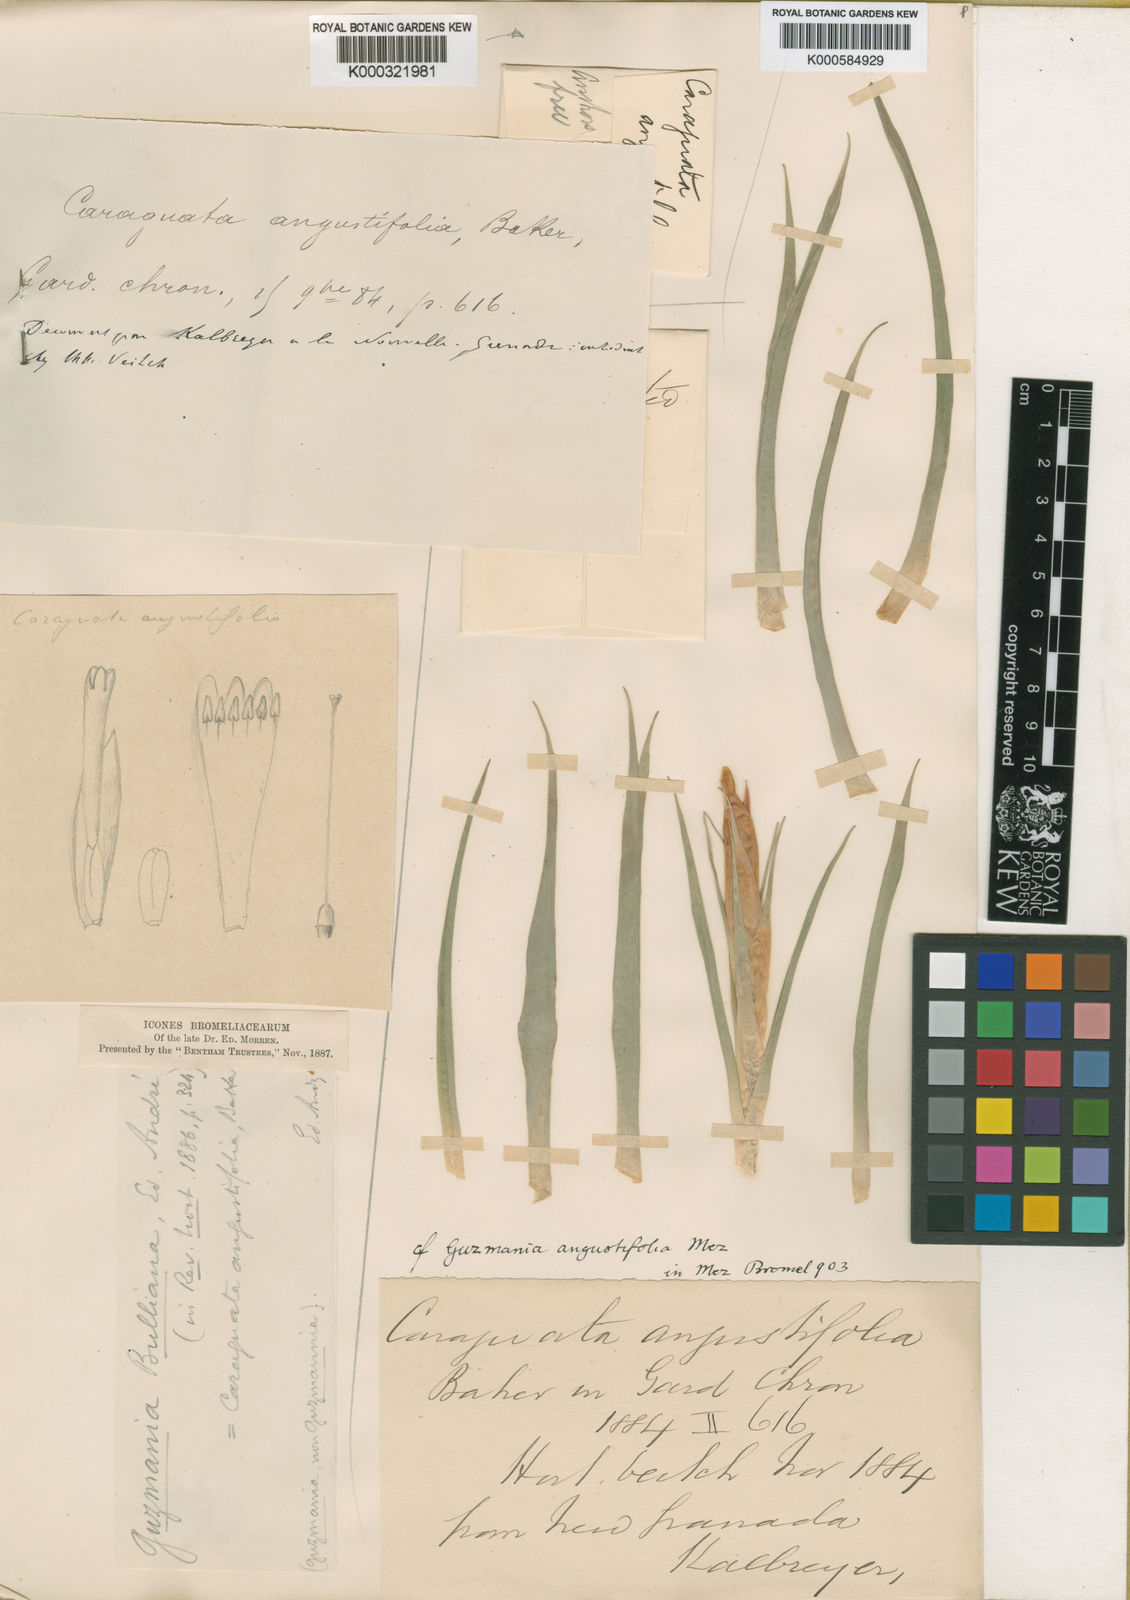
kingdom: Plantae
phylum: Tracheophyta
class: Liliopsida
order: Poales
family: Bromeliaceae
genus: Guzmania
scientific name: Guzmania angustifolia
